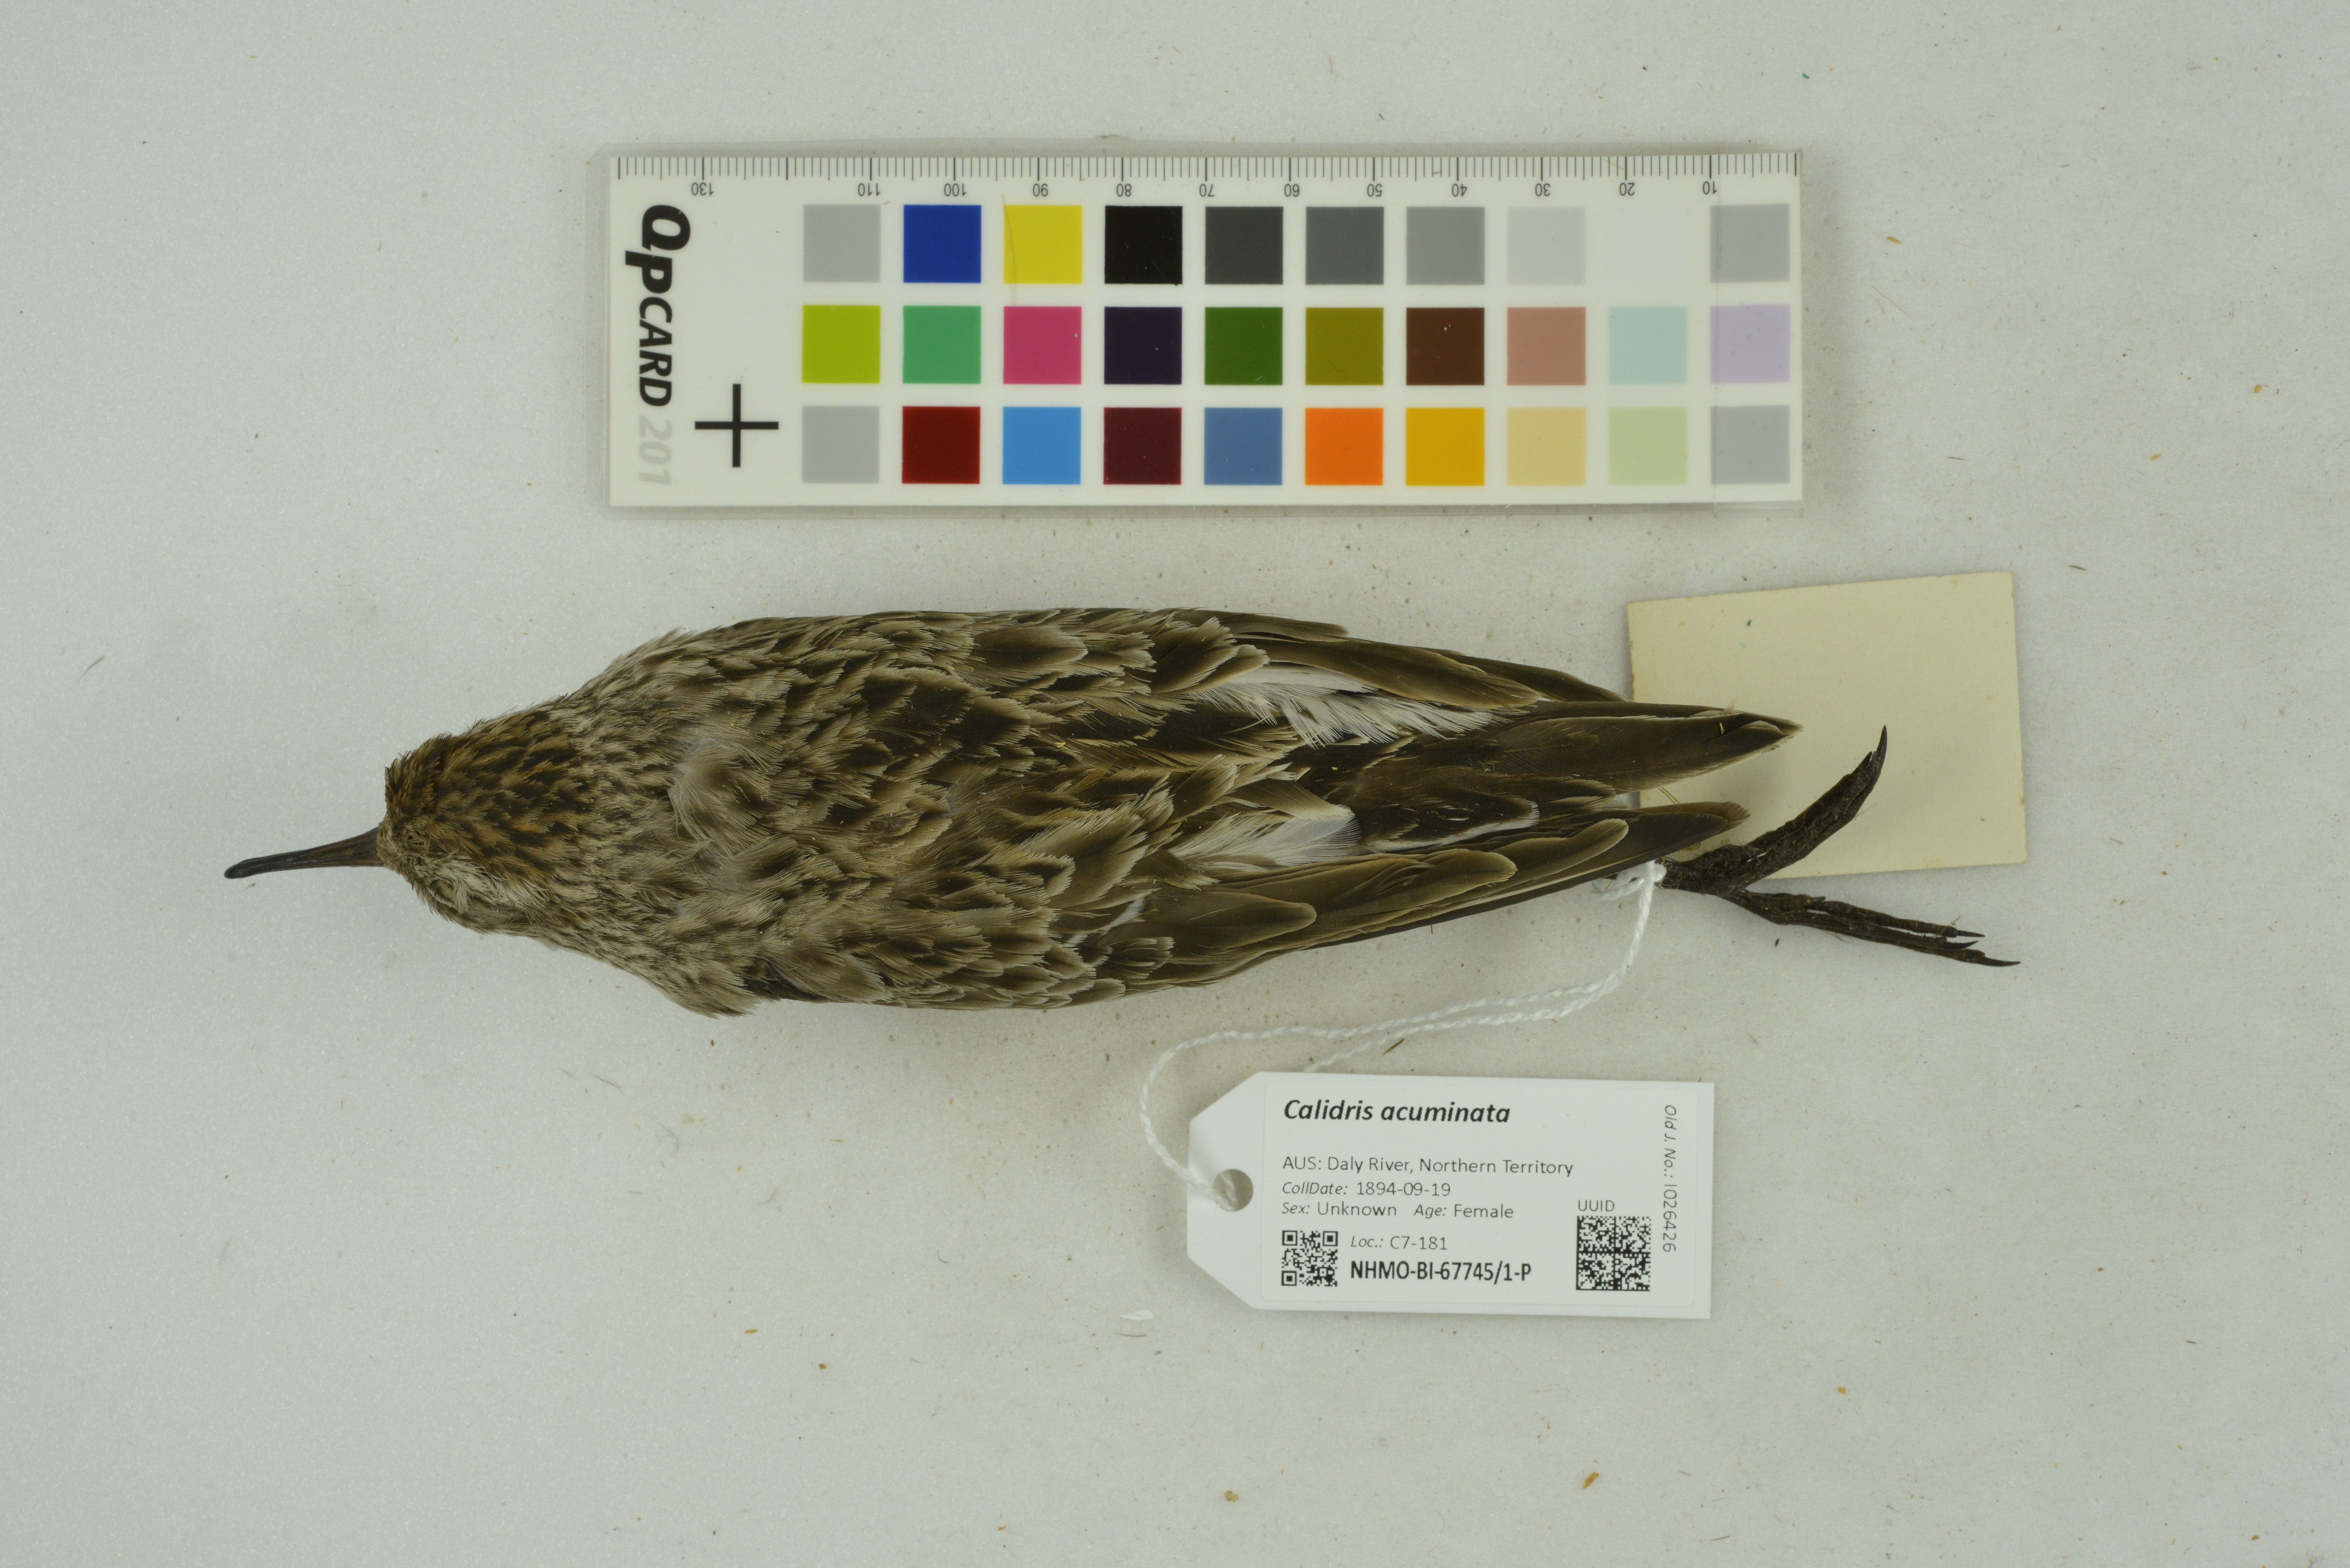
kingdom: Animalia
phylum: Chordata
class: Aves
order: Charadriiformes
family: Scolopacidae
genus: Calidris
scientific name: Calidris acuminata
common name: Sharp-tailed sandpiper
